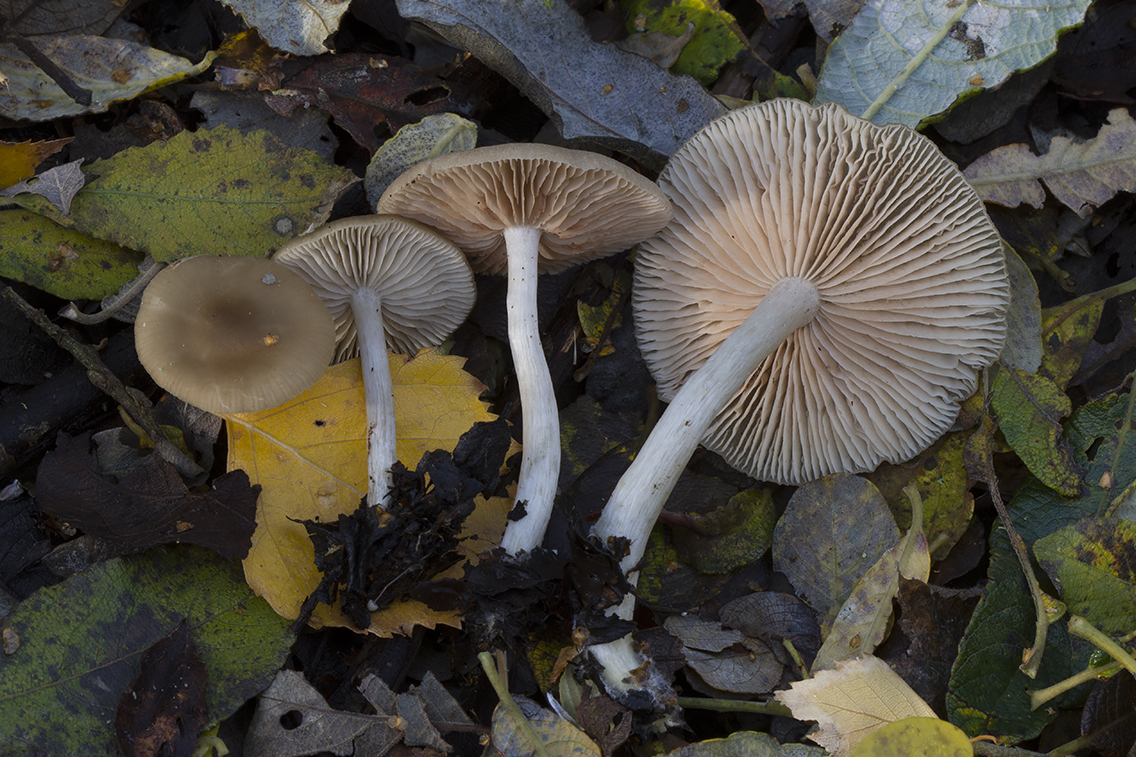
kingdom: Fungi
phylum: Basidiomycota
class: Agaricomycetes
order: Agaricales
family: Entolomataceae
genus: Entoloma
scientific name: Entoloma
